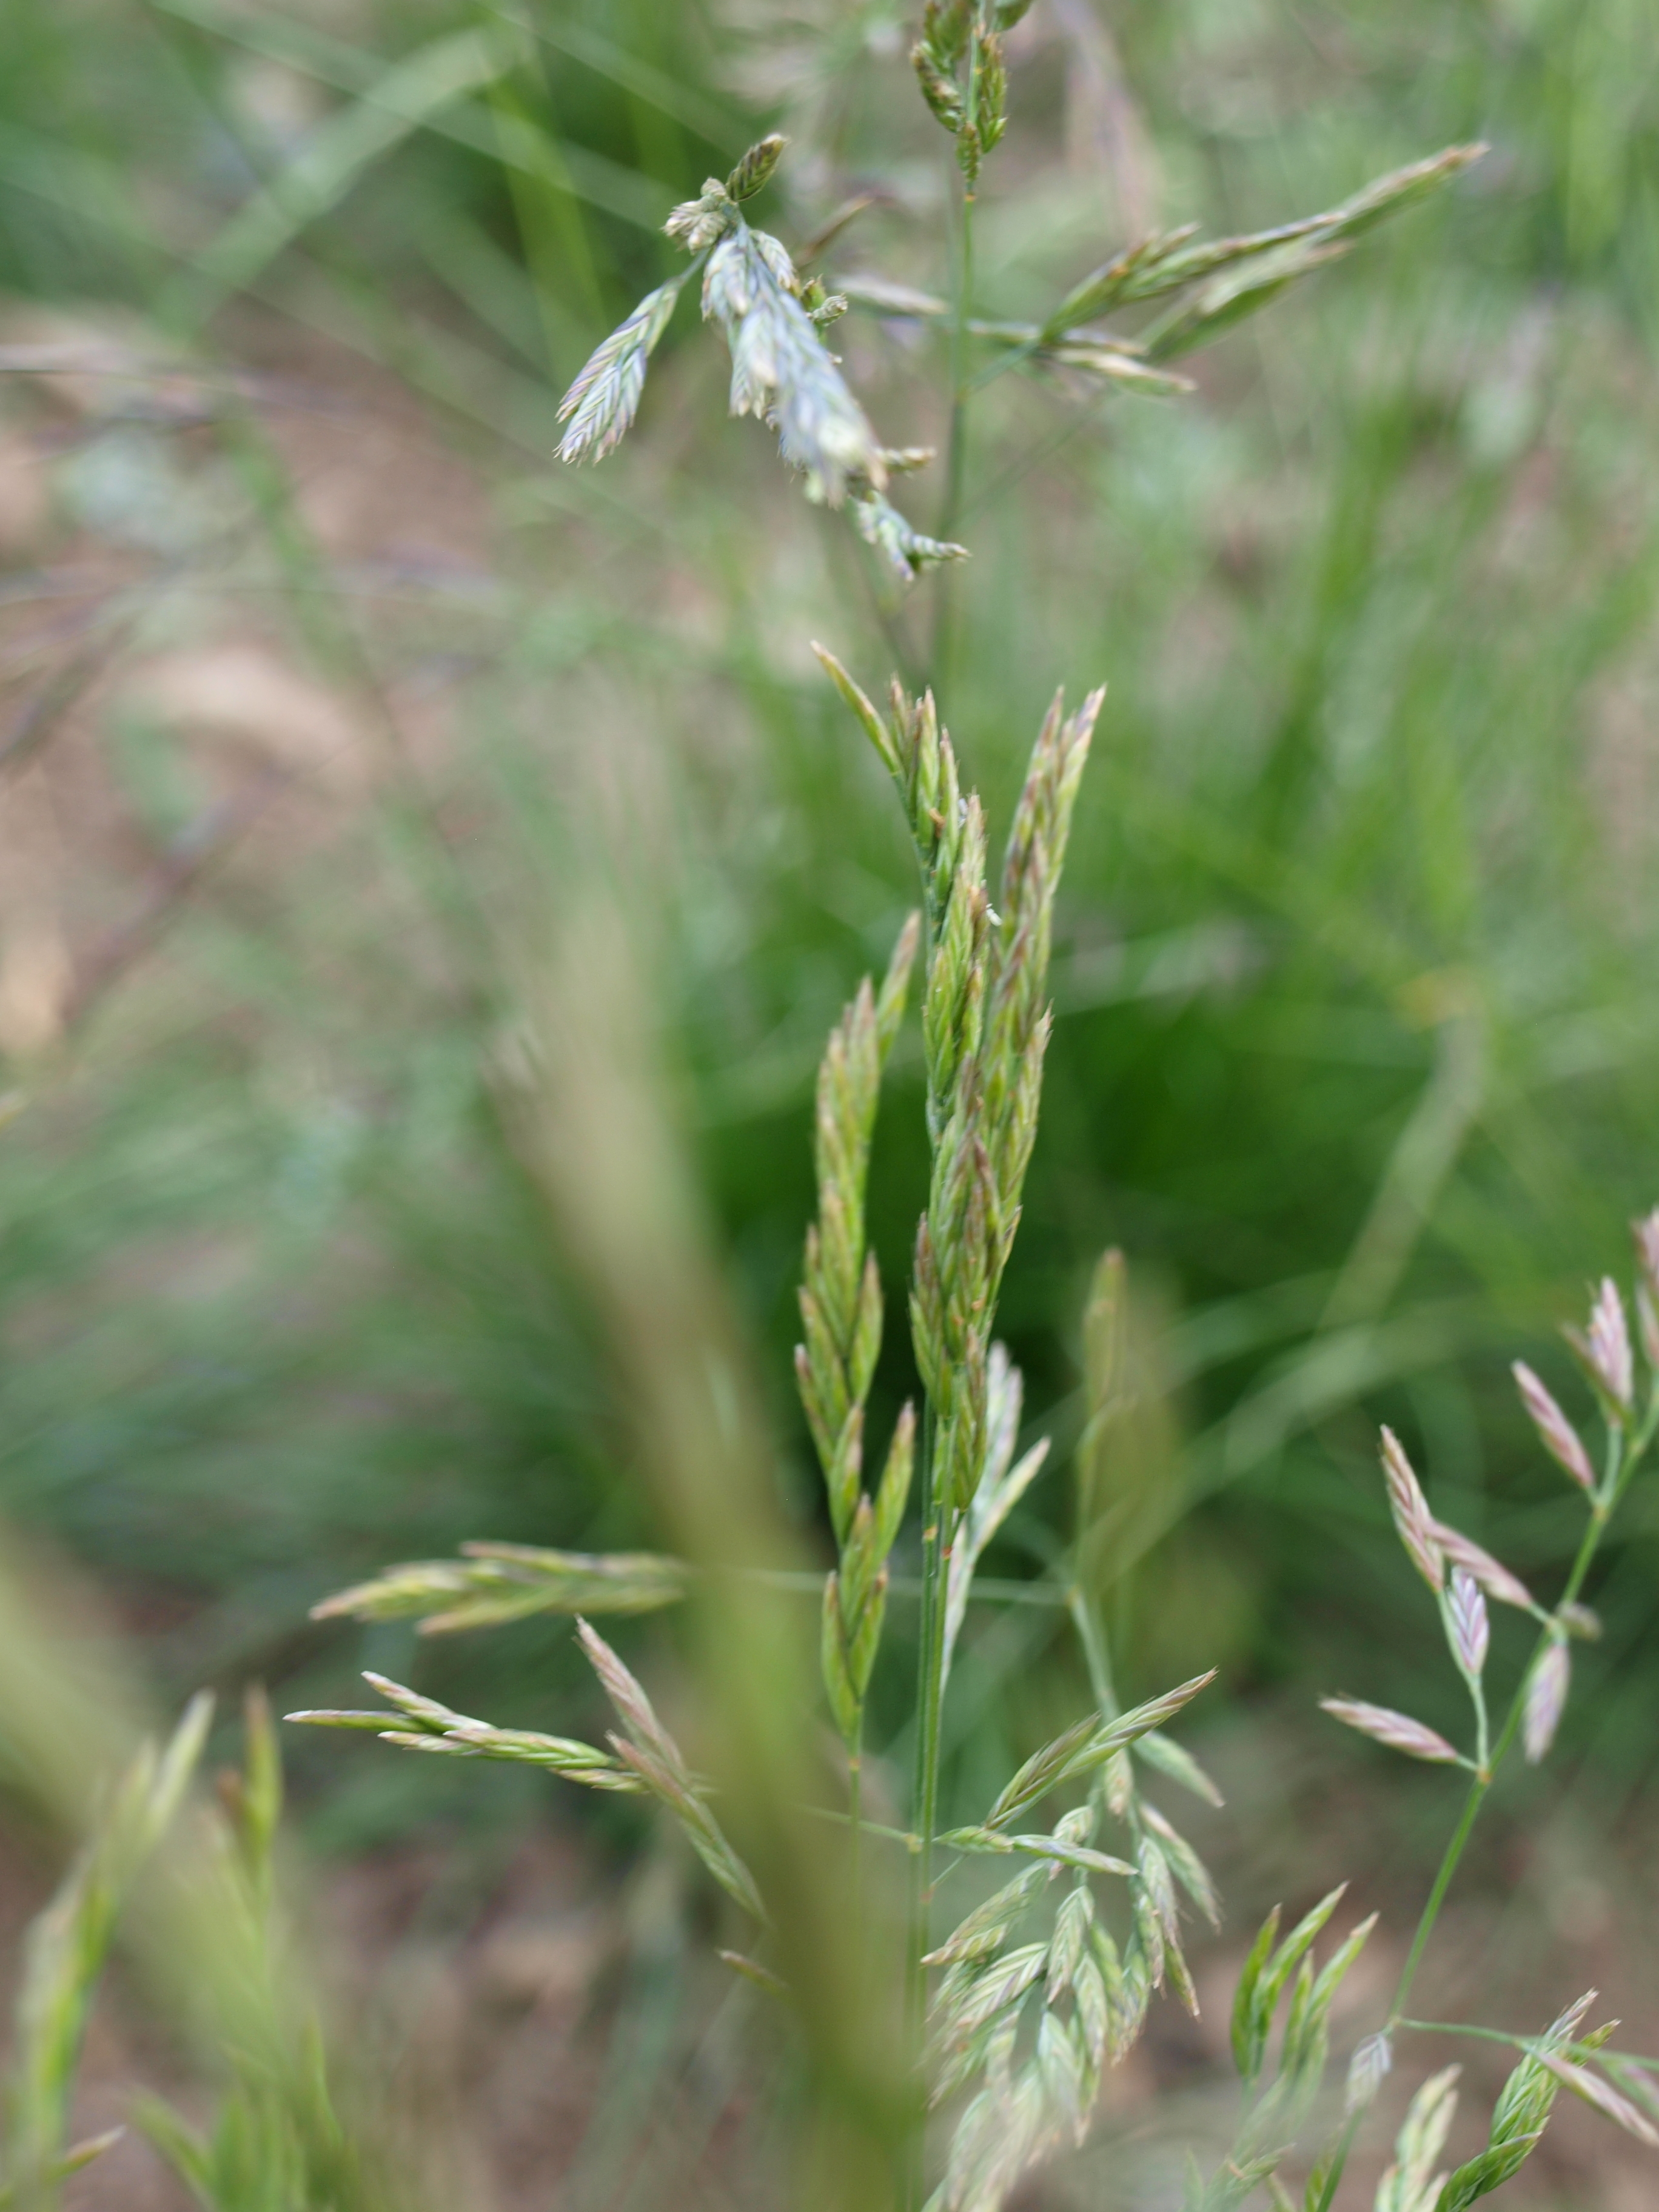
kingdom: Plantae
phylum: Tracheophyta
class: Liliopsida
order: Poales
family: Poaceae
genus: Festuca
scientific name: Festuca rubra
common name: Red fescue
